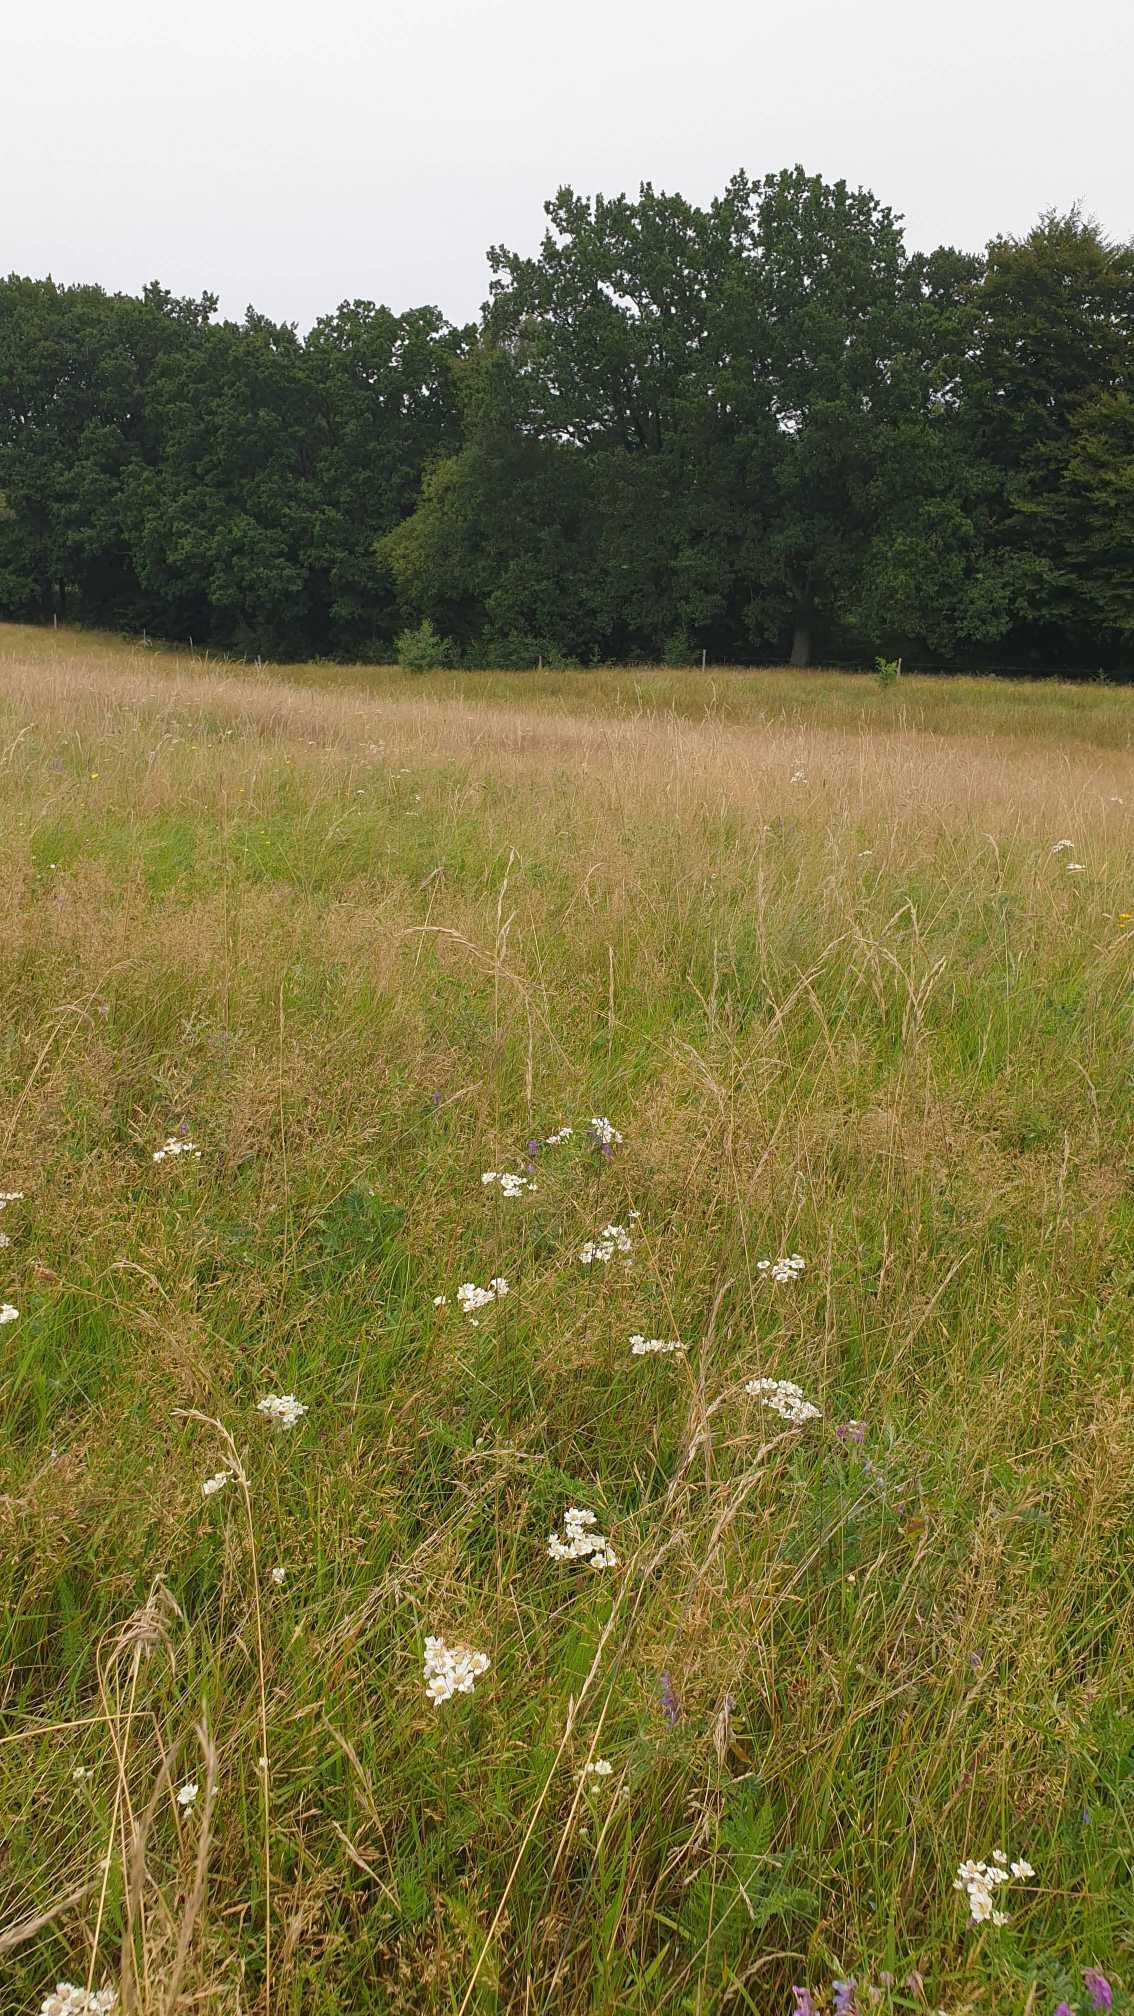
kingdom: Plantae
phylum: Tracheophyta
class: Magnoliopsida
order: Asterales
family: Asteraceae
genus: Achillea
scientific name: Achillea ptarmica
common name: Nyse-røllike
